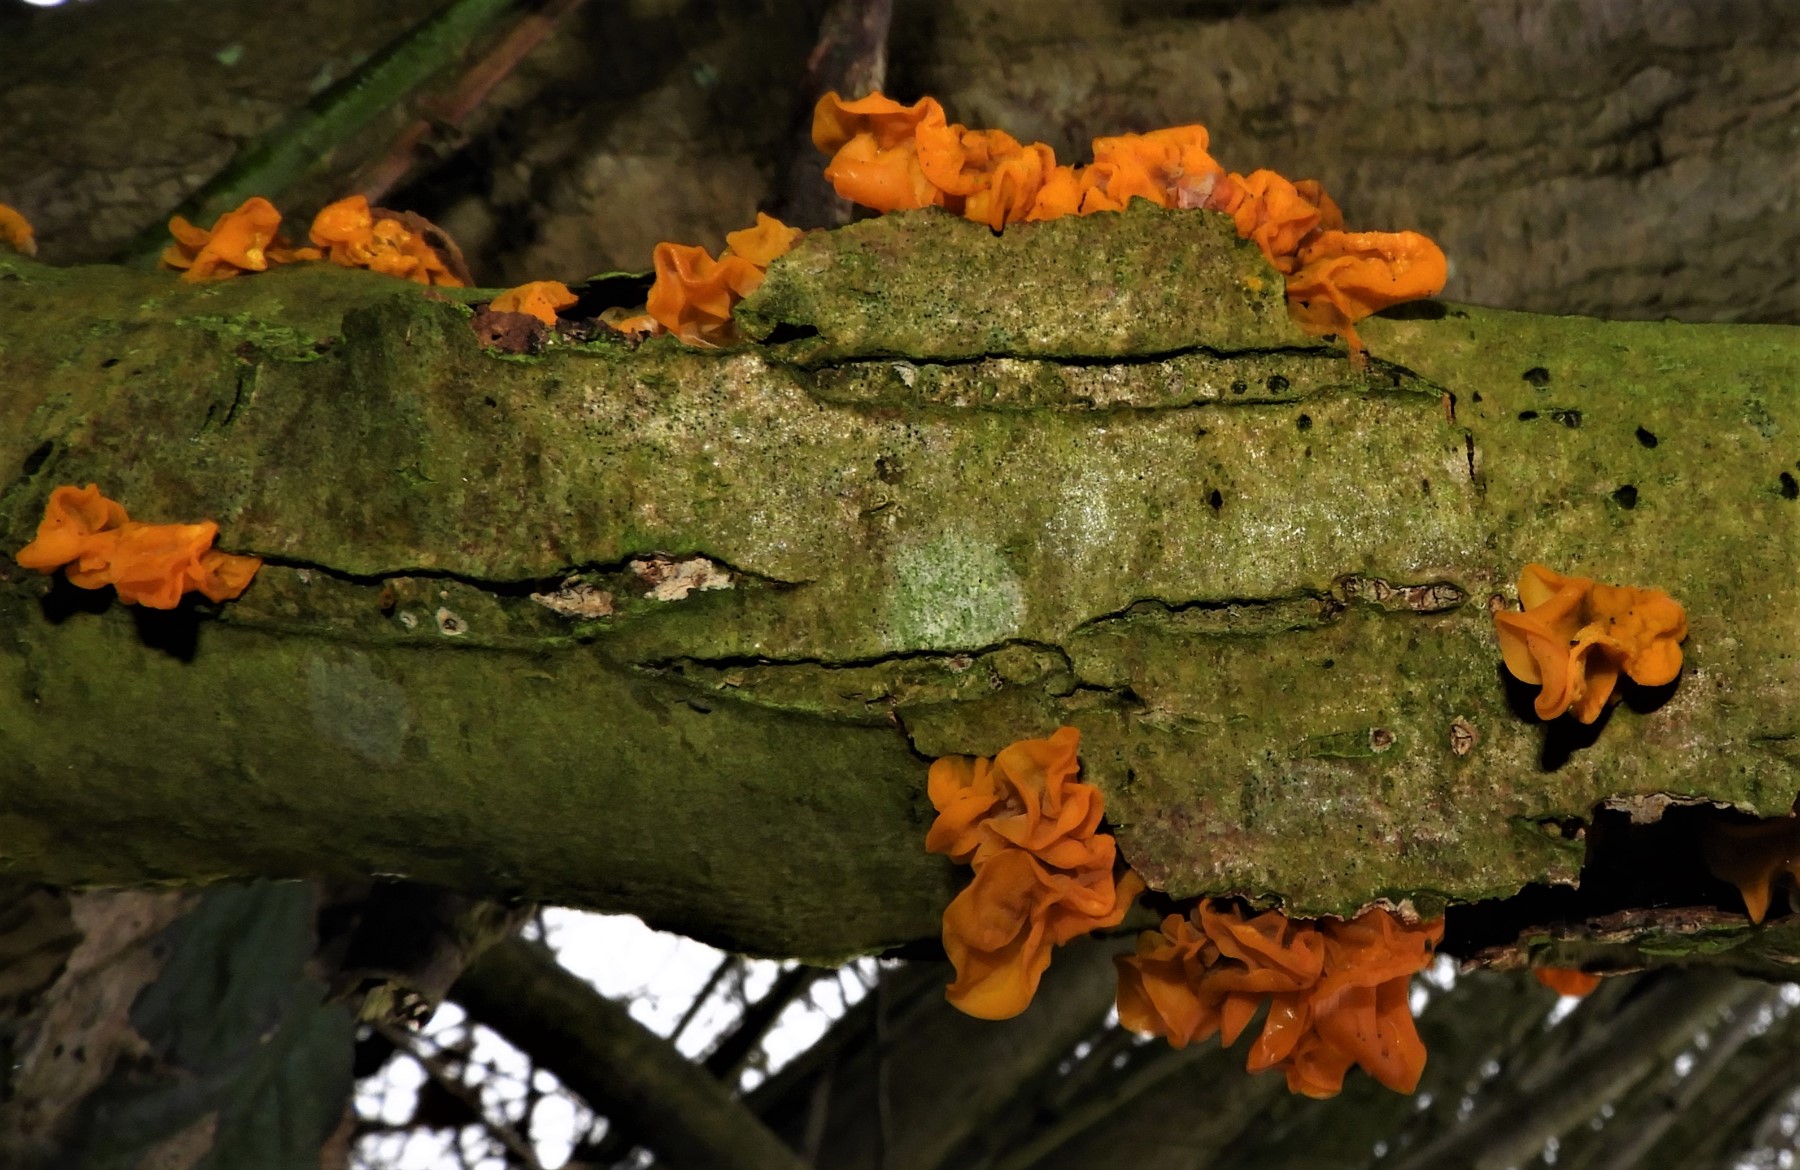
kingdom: Fungi
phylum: Basidiomycota
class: Tremellomycetes
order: Tremellales
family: Tremellaceae
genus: Tremella
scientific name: Tremella mesenterica
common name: gul bævresvamp
